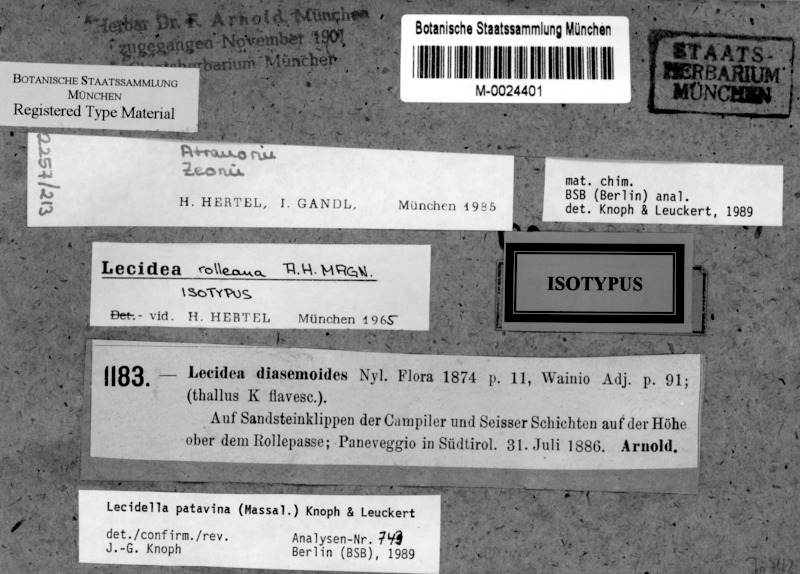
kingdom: Fungi
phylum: Ascomycota
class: Lecanoromycetes
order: Lecanorales
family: Lecanoraceae
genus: Lecidella
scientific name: Lecidella patavina
